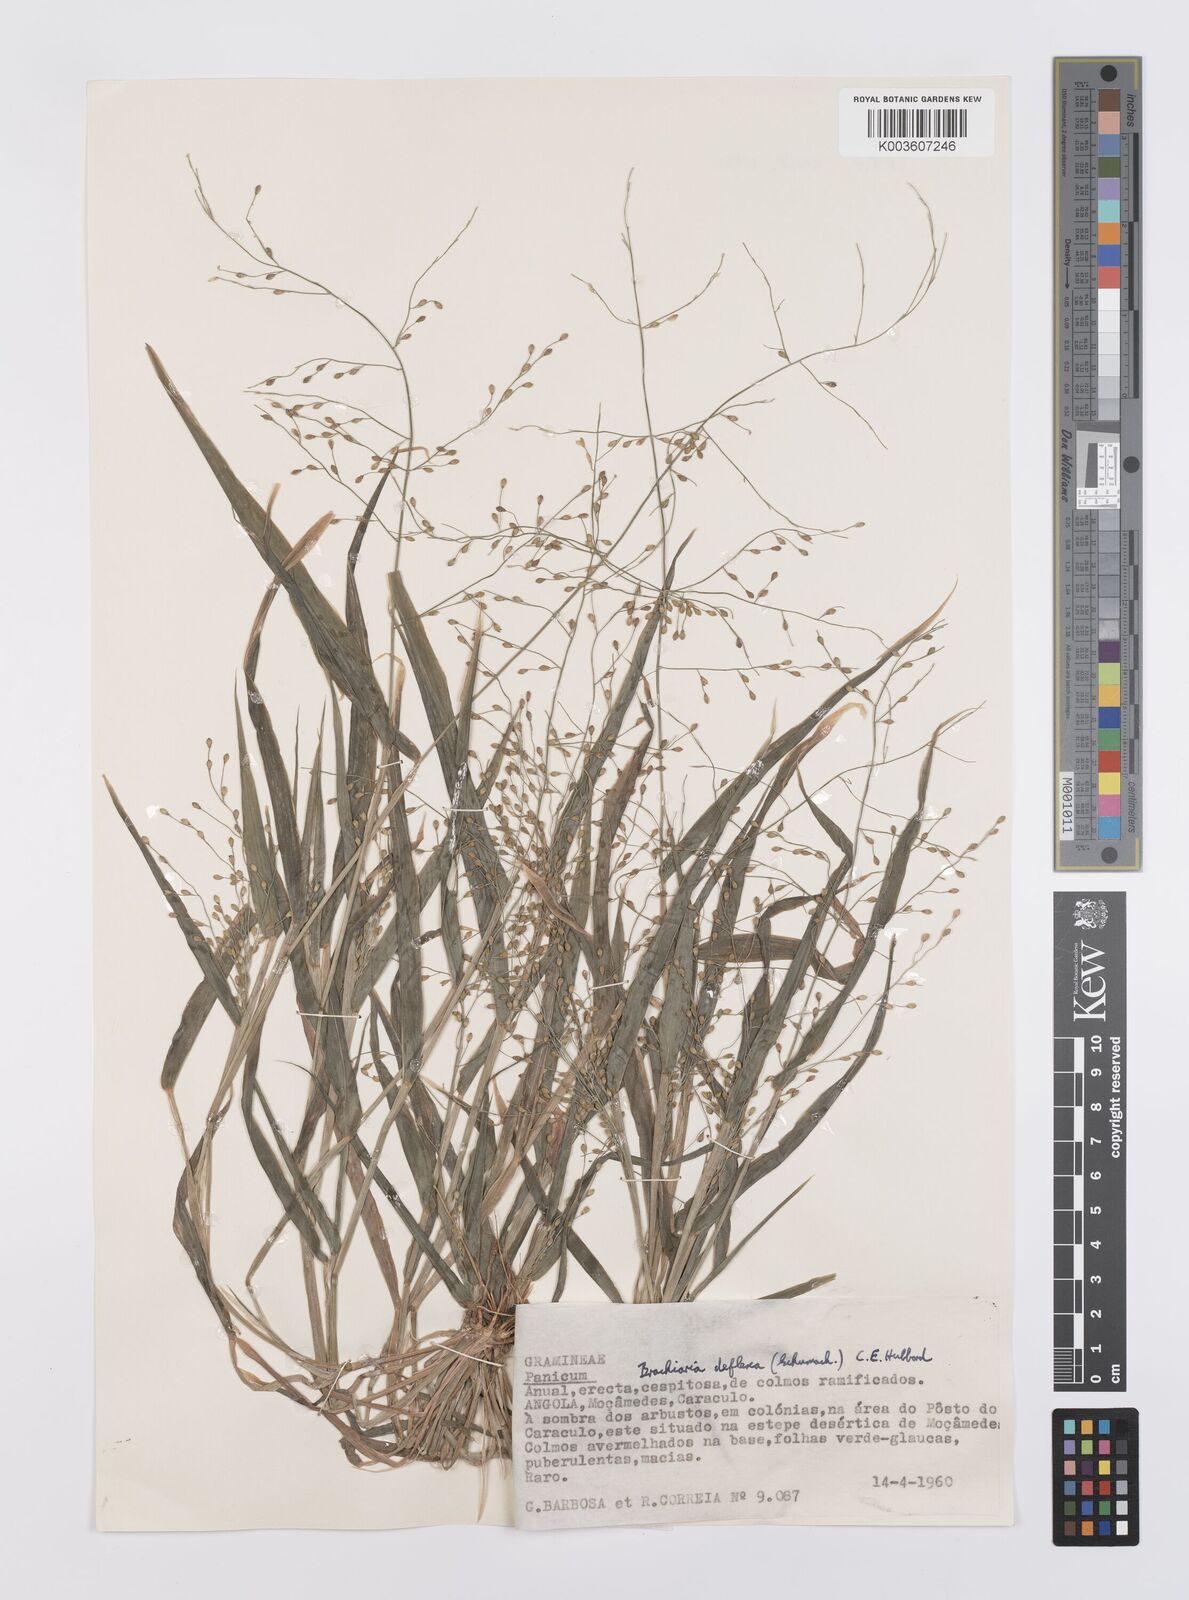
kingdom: Plantae
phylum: Tracheophyta
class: Liliopsida
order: Poales
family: Poaceae
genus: Urochloa
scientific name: Urochloa deflexa
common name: Guinea millet
